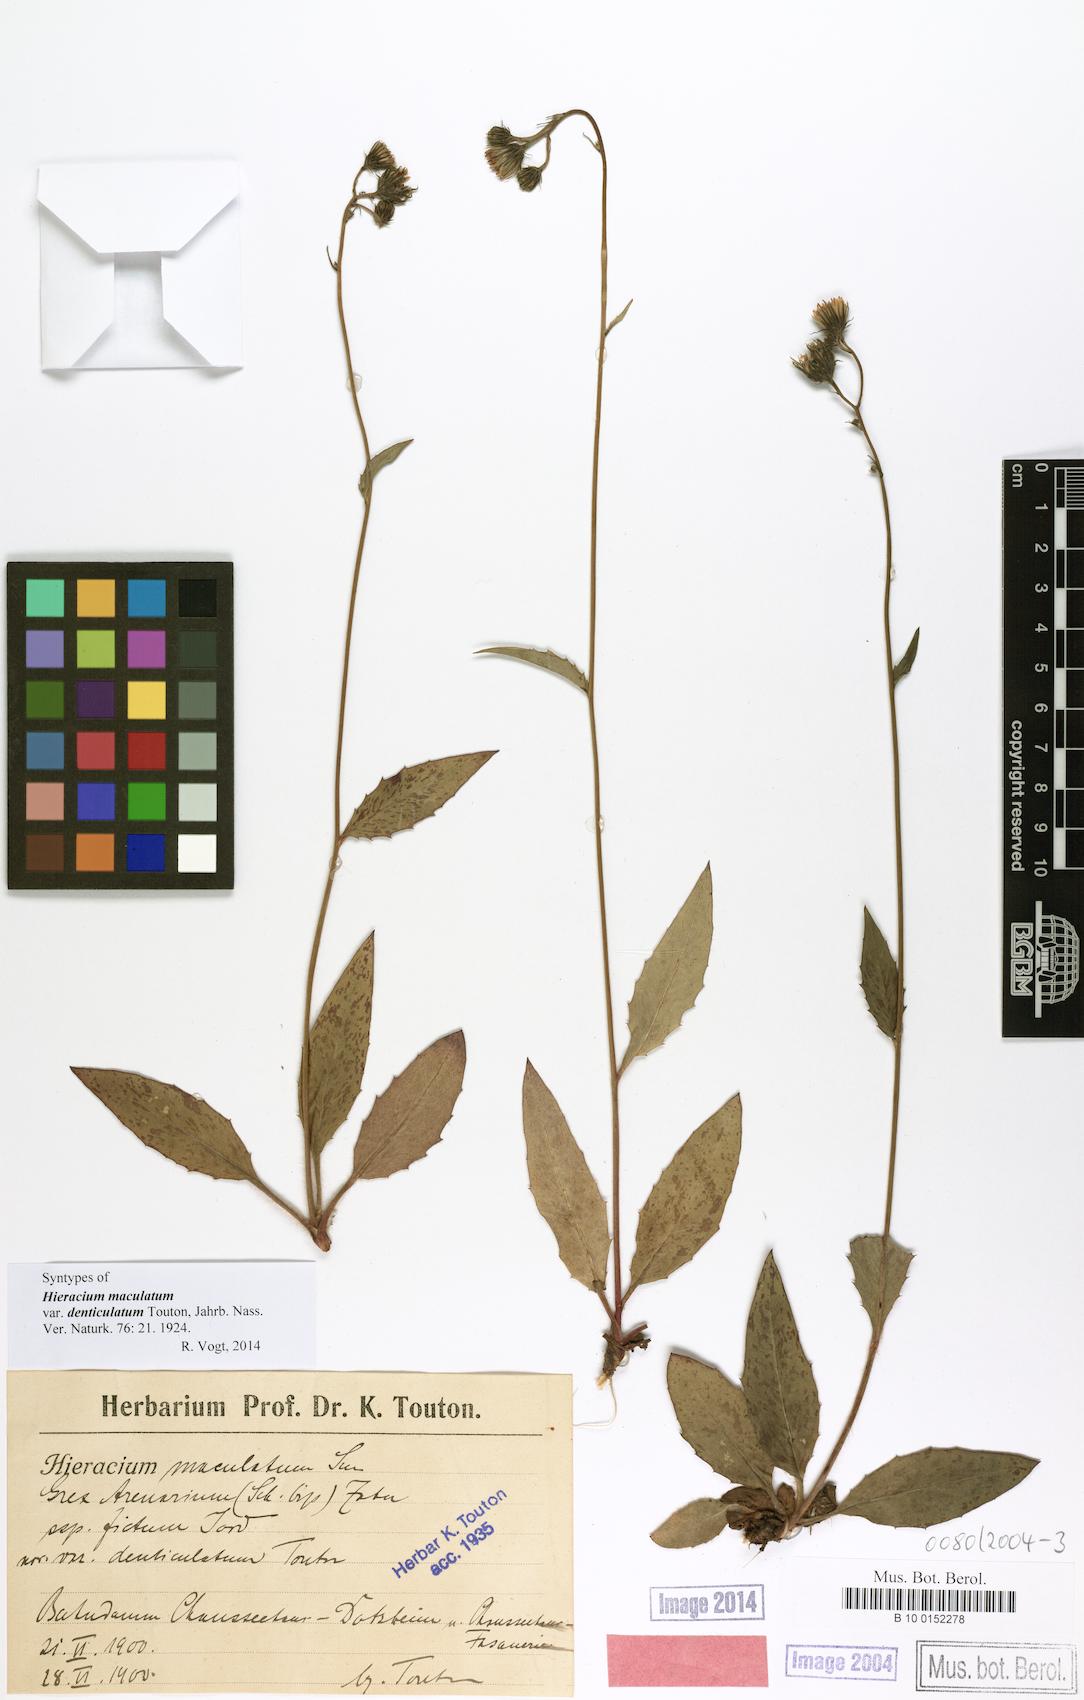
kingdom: Plantae
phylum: Tracheophyta
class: Magnoliopsida
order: Asterales
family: Asteraceae
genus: Hieracium
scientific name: Hieracium maculatum
